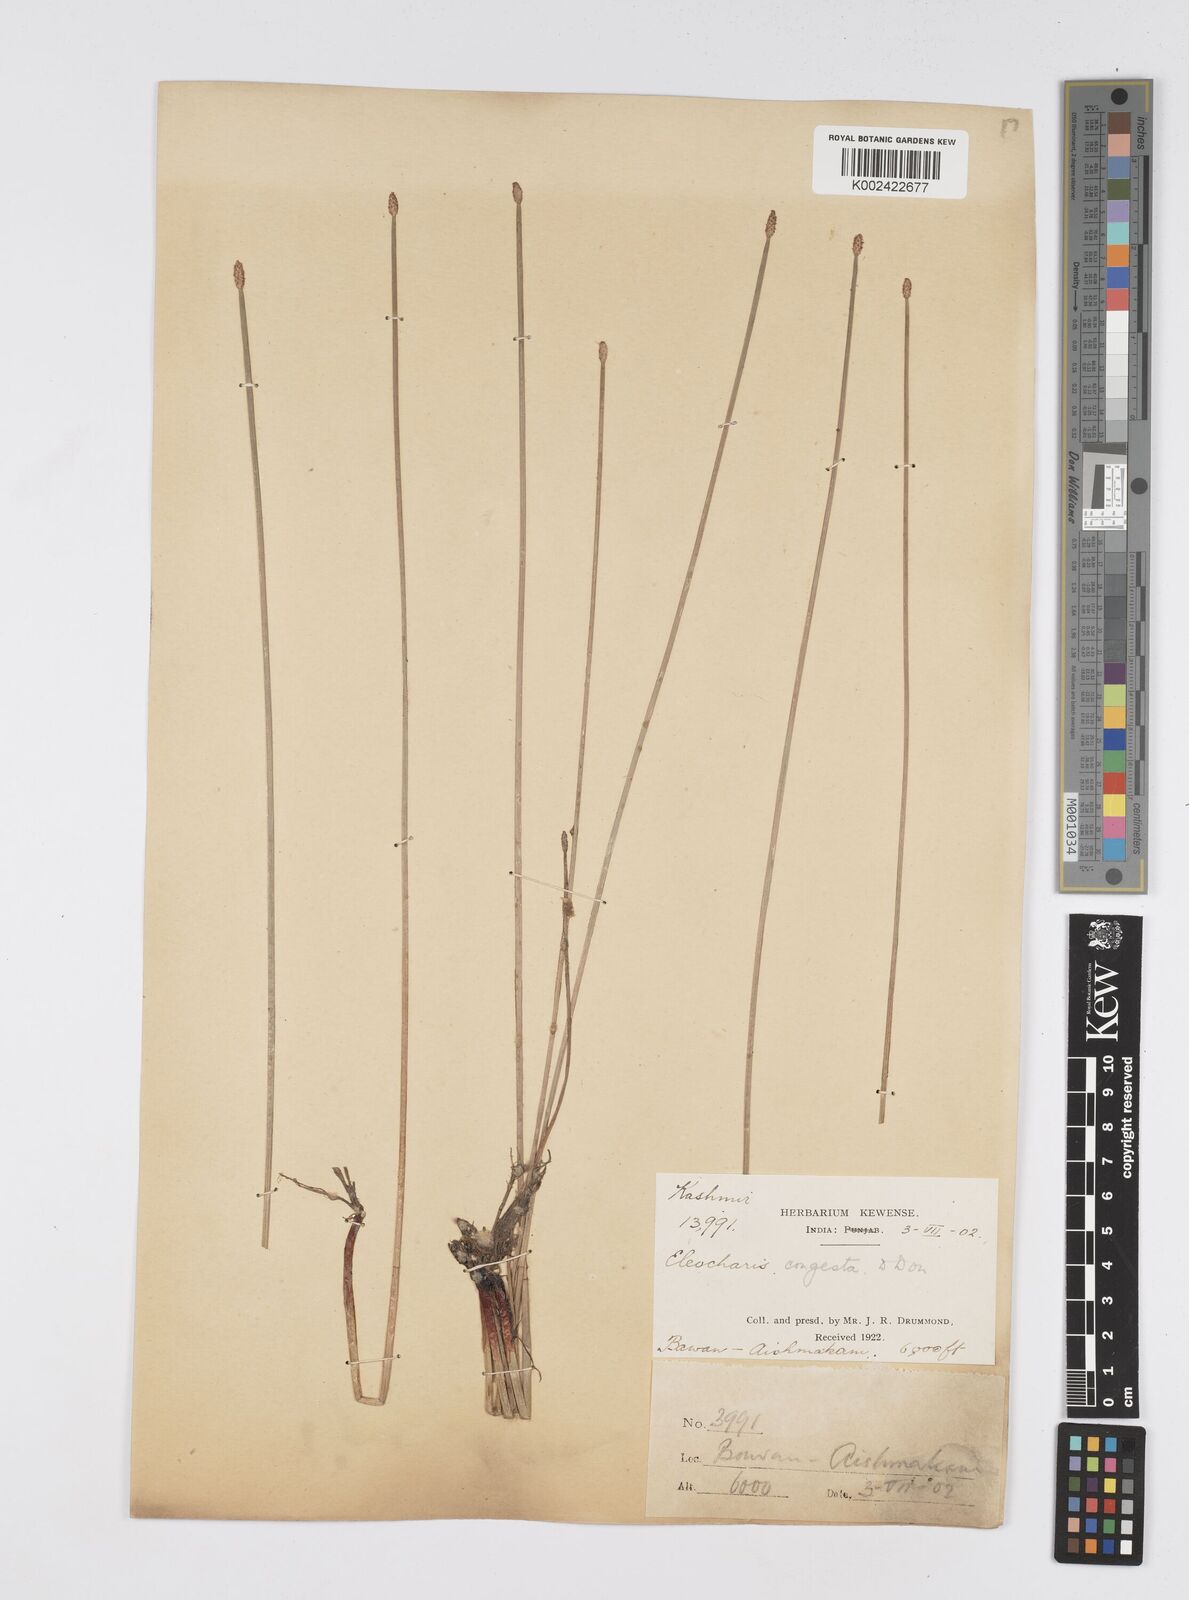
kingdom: Plantae
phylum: Tracheophyta
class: Liliopsida
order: Poales
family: Cyperaceae
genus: Eleocharis
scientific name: Eleocharis congesta
